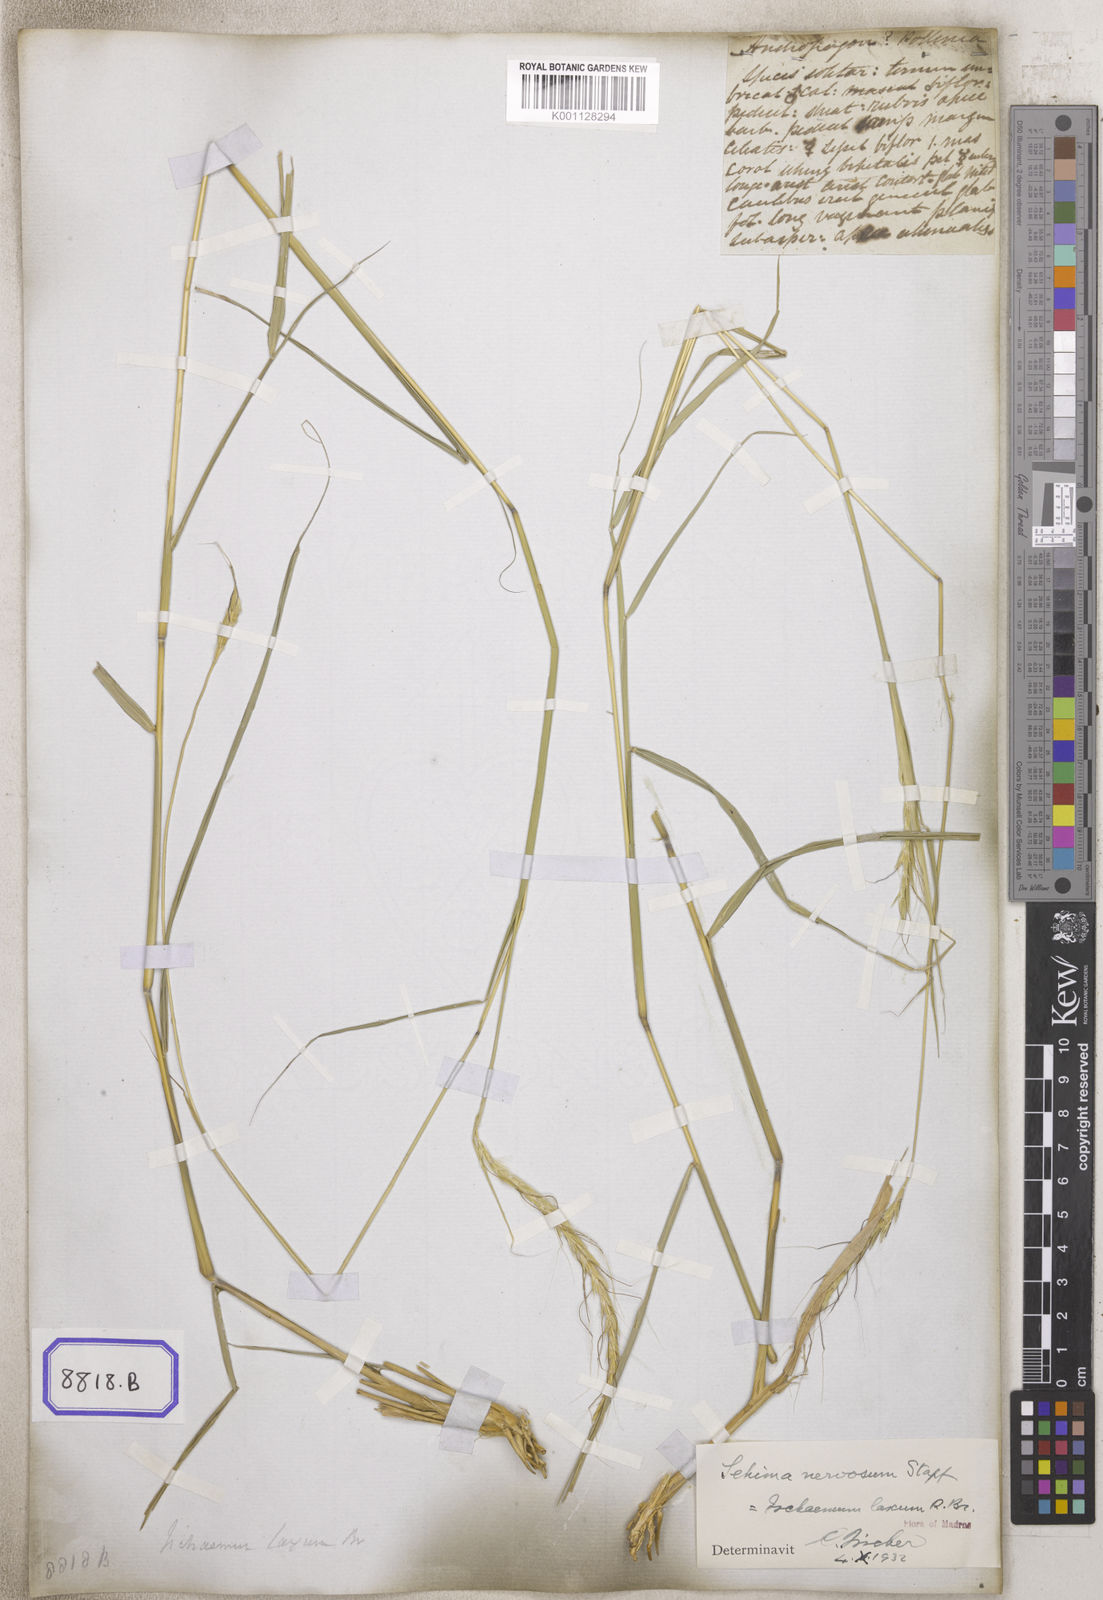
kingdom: Plantae
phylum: Tracheophyta
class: Liliopsida
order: Poales
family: Poaceae
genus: Andropogon
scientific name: Andropogon
